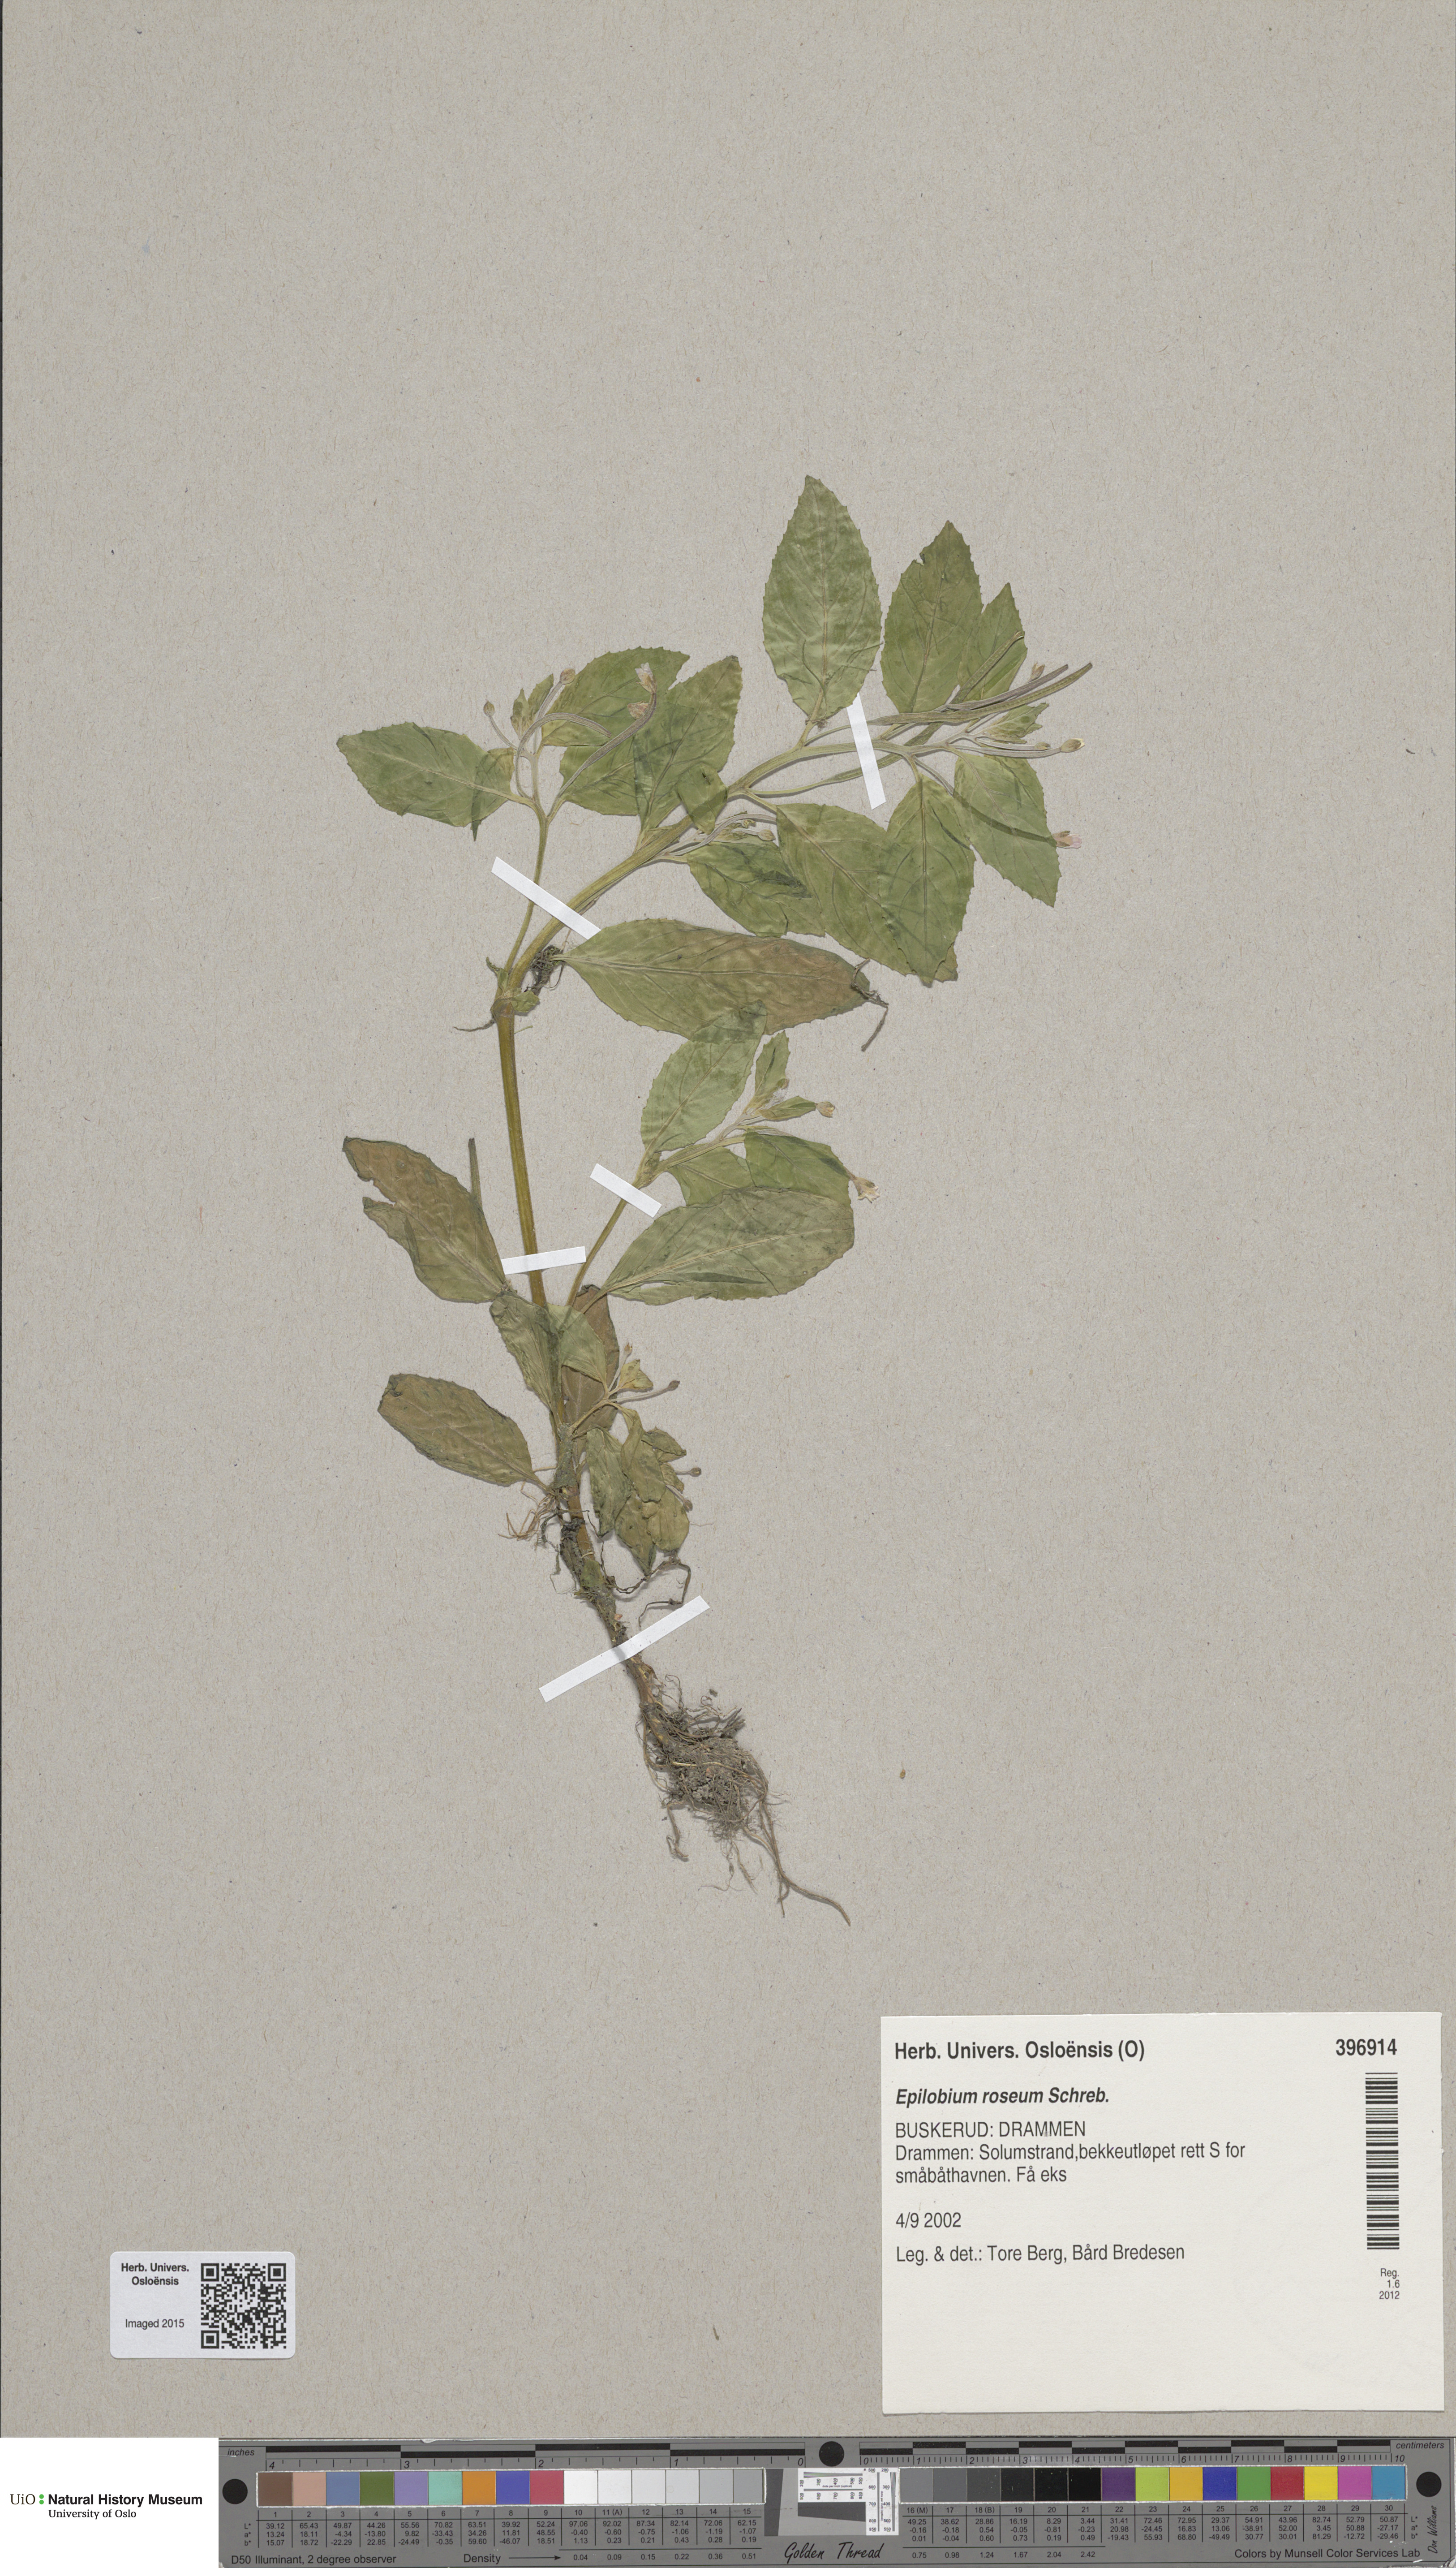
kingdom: Plantae
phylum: Tracheophyta
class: Magnoliopsida
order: Myrtales
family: Onagraceae
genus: Epilobium
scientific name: Epilobium roseum
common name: Pale willowherb
